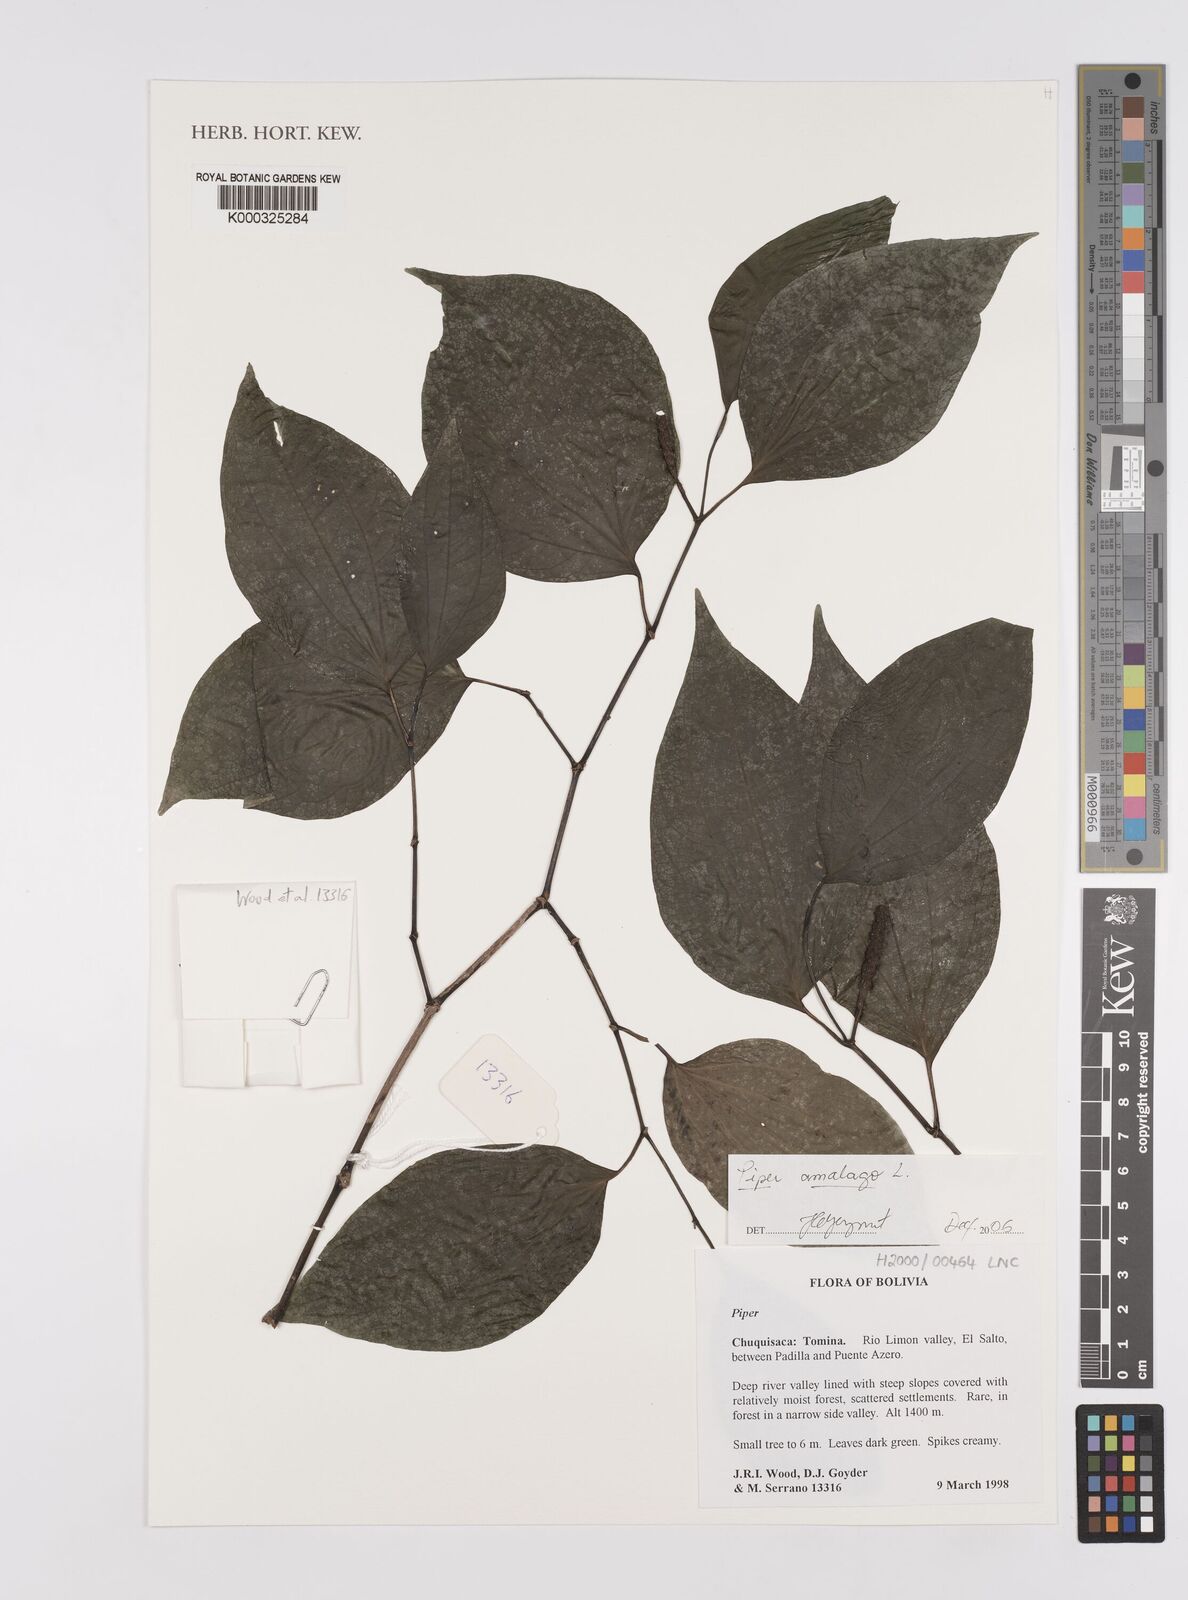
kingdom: Plantae
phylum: Tracheophyta
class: Magnoliopsida
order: Piperales
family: Piperaceae
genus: Piper
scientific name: Piper amalago
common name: Pepper-elder
